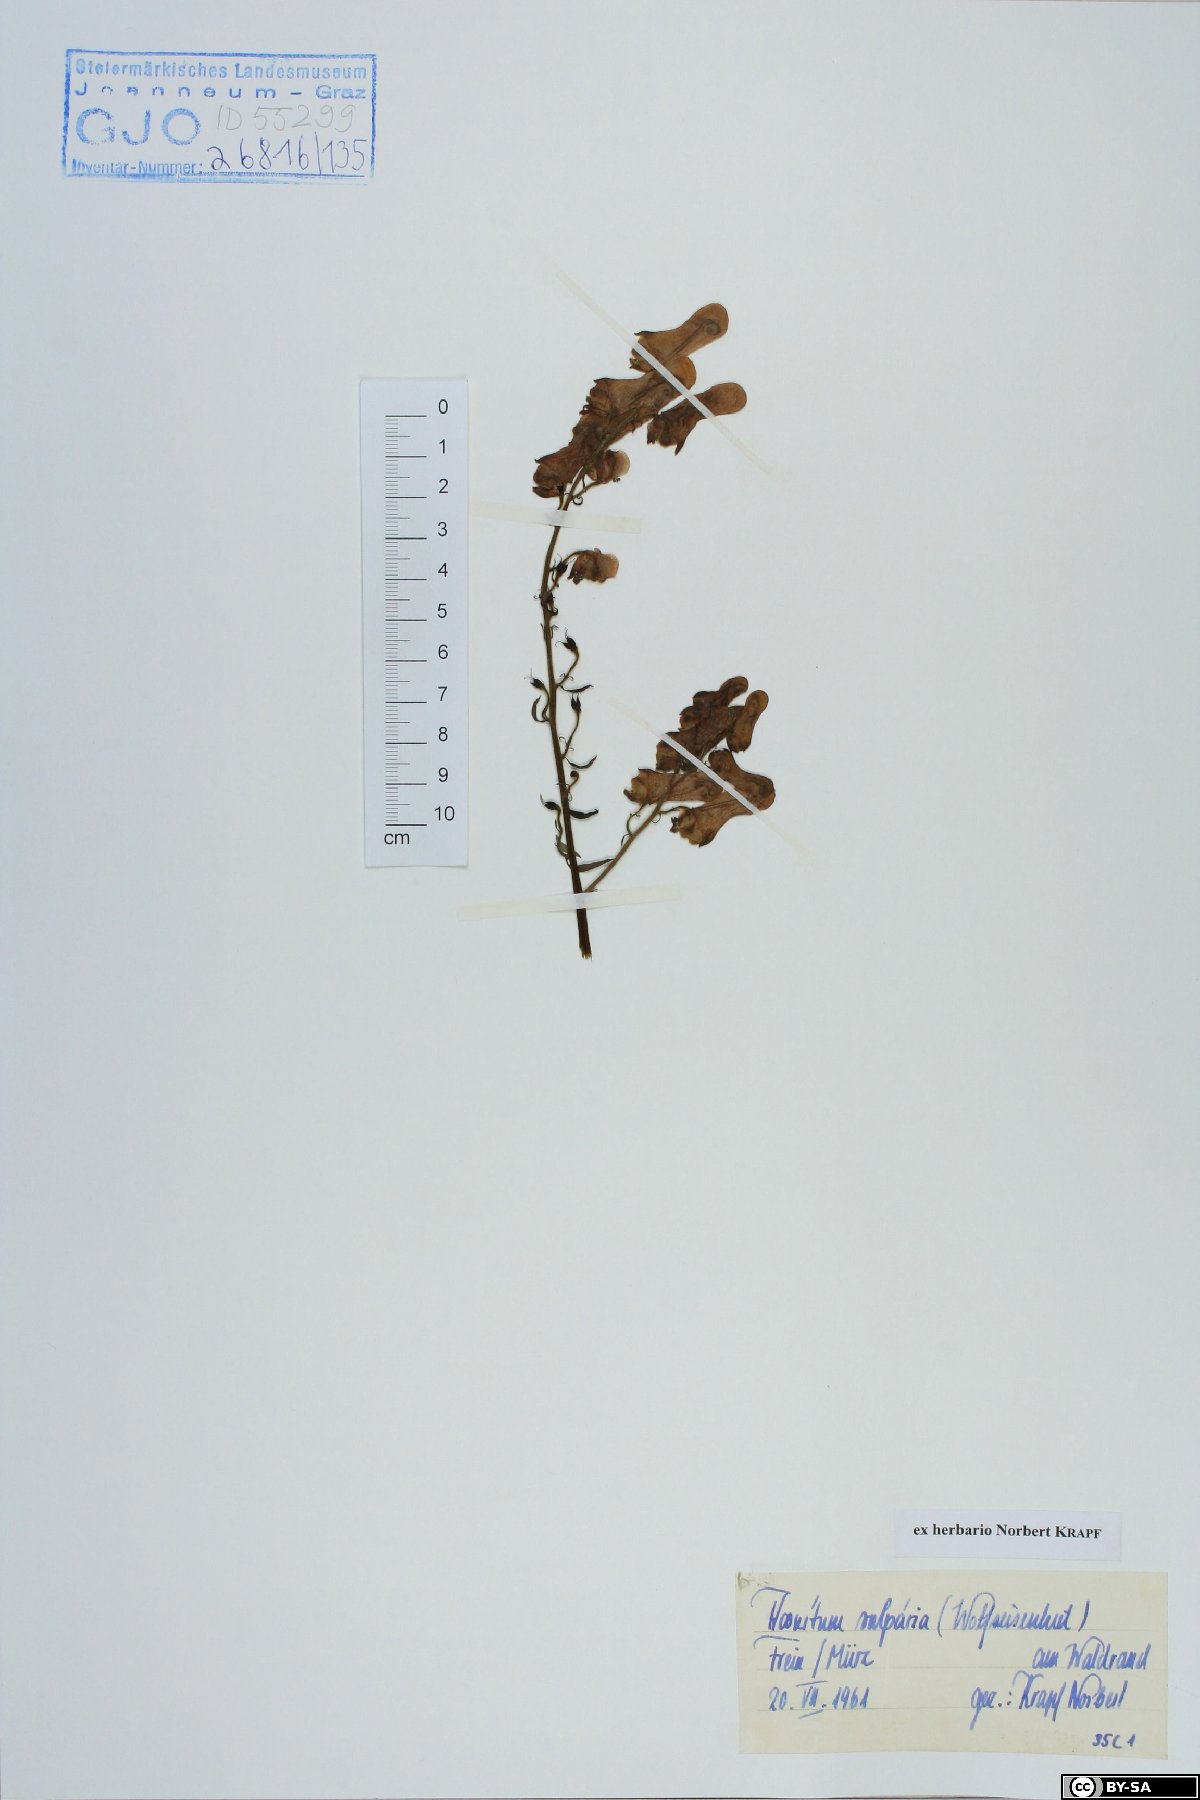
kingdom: Plantae
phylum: Tracheophyta
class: Magnoliopsida
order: Ranunculales
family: Ranunculaceae
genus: Aconitum
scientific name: Aconitum lycoctonum
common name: Wolf's-bane
